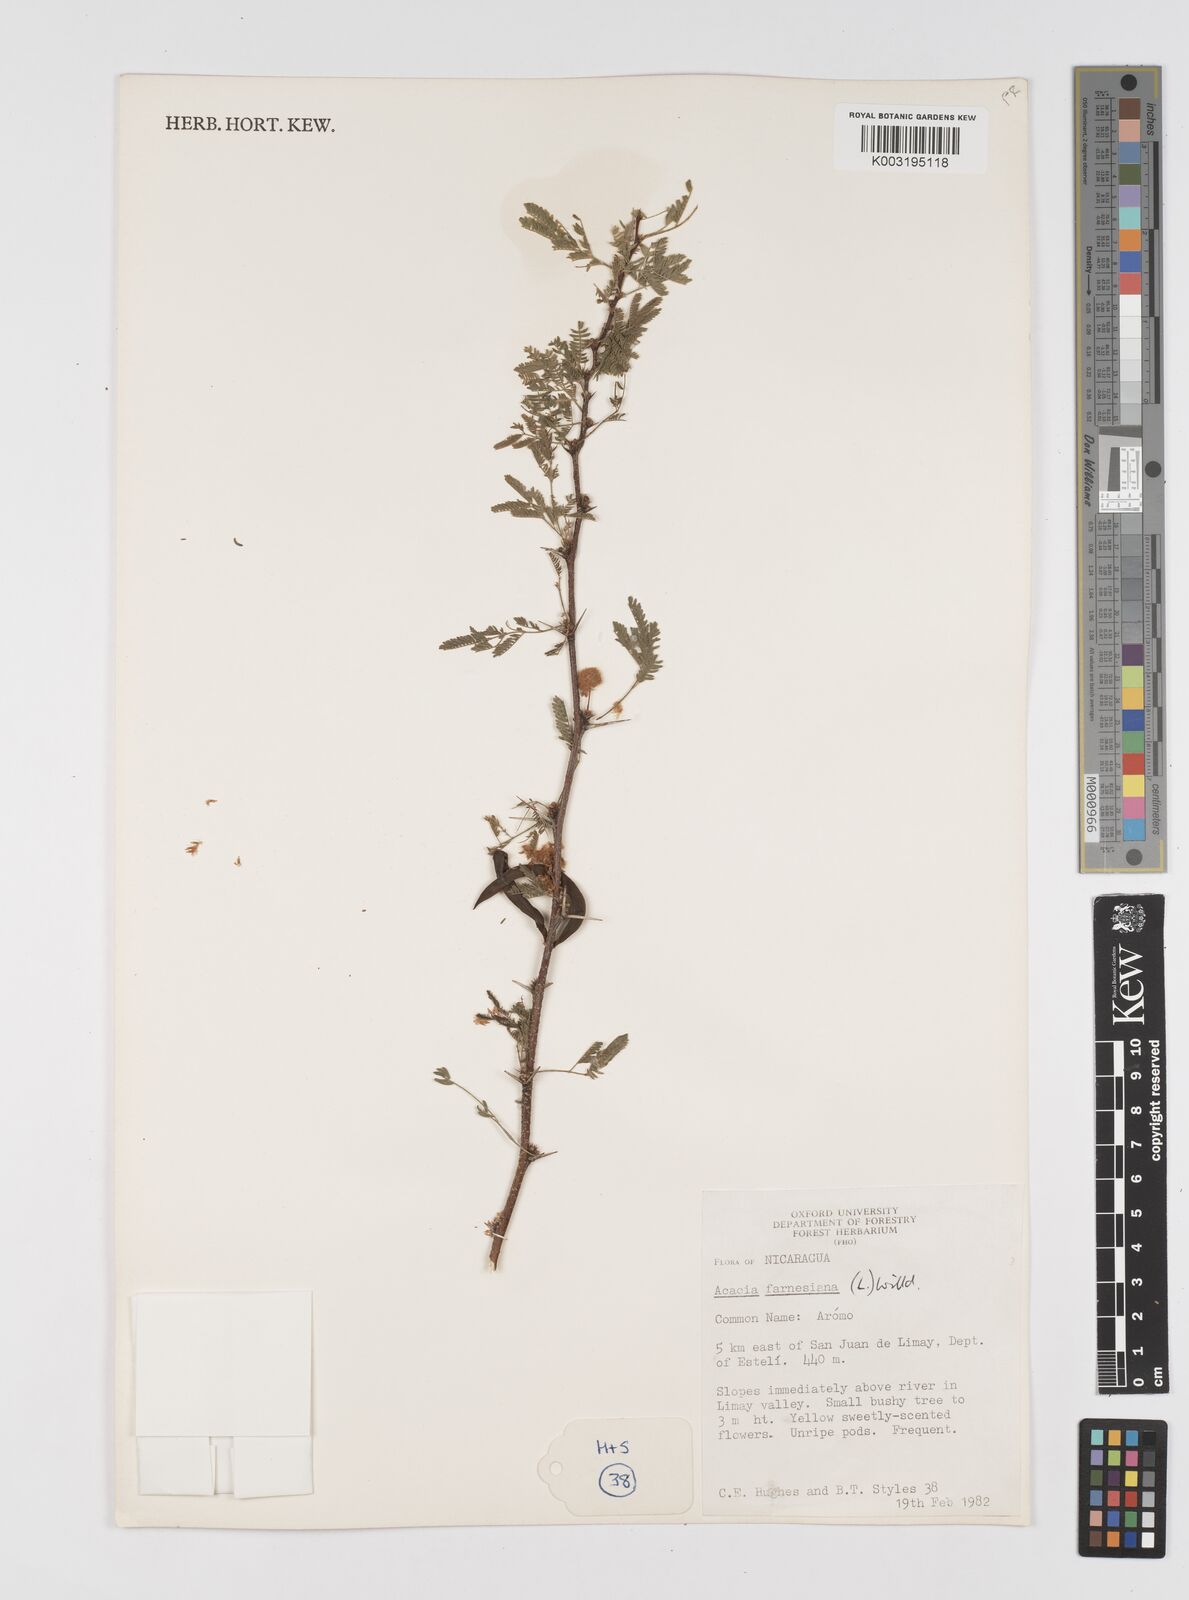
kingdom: Plantae
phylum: Tracheophyta
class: Magnoliopsida
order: Fabales
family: Fabaceae
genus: Vachellia
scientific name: Vachellia farnesiana
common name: Sweet acacia
